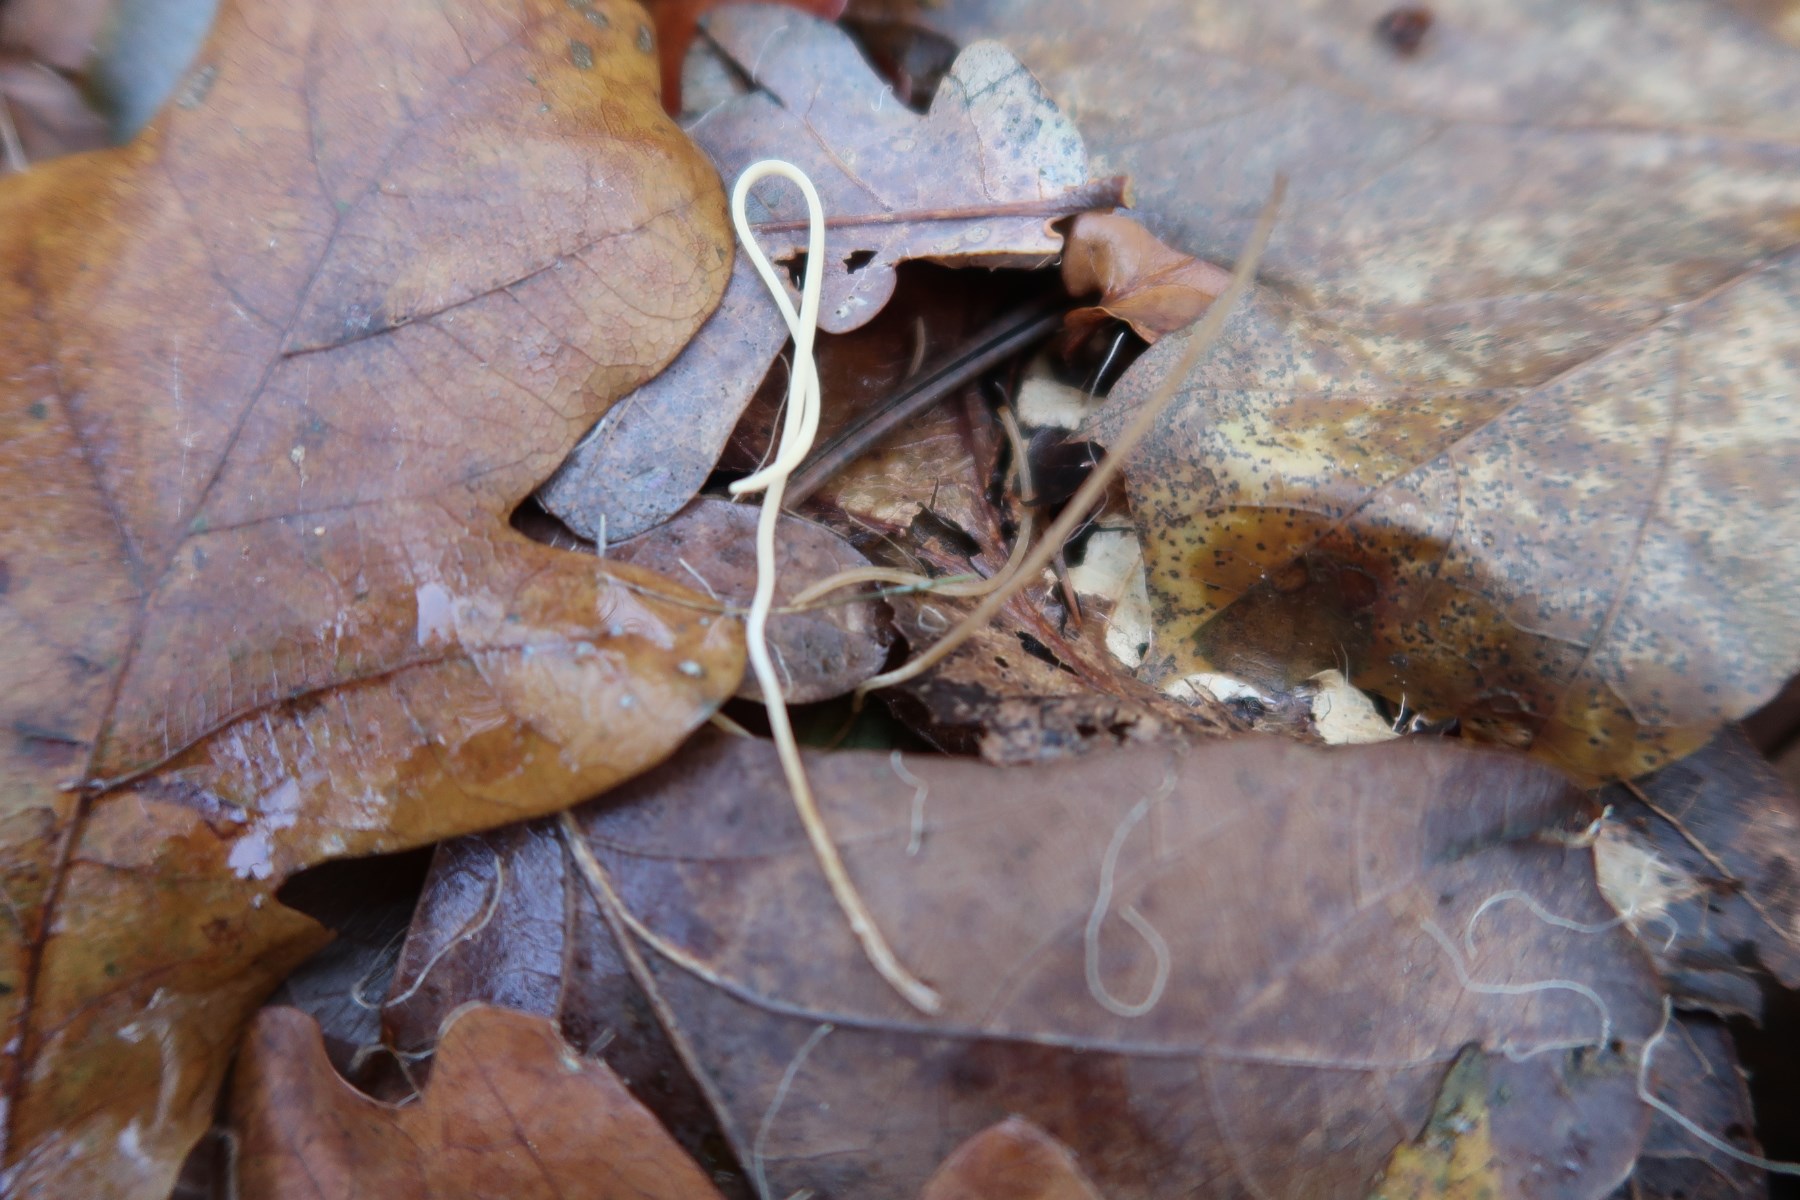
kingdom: Fungi
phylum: Basidiomycota
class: Agaricomycetes
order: Agaricales
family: Typhulaceae
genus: Typhula
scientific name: Typhula juncea
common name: trådagtig rørkølle
